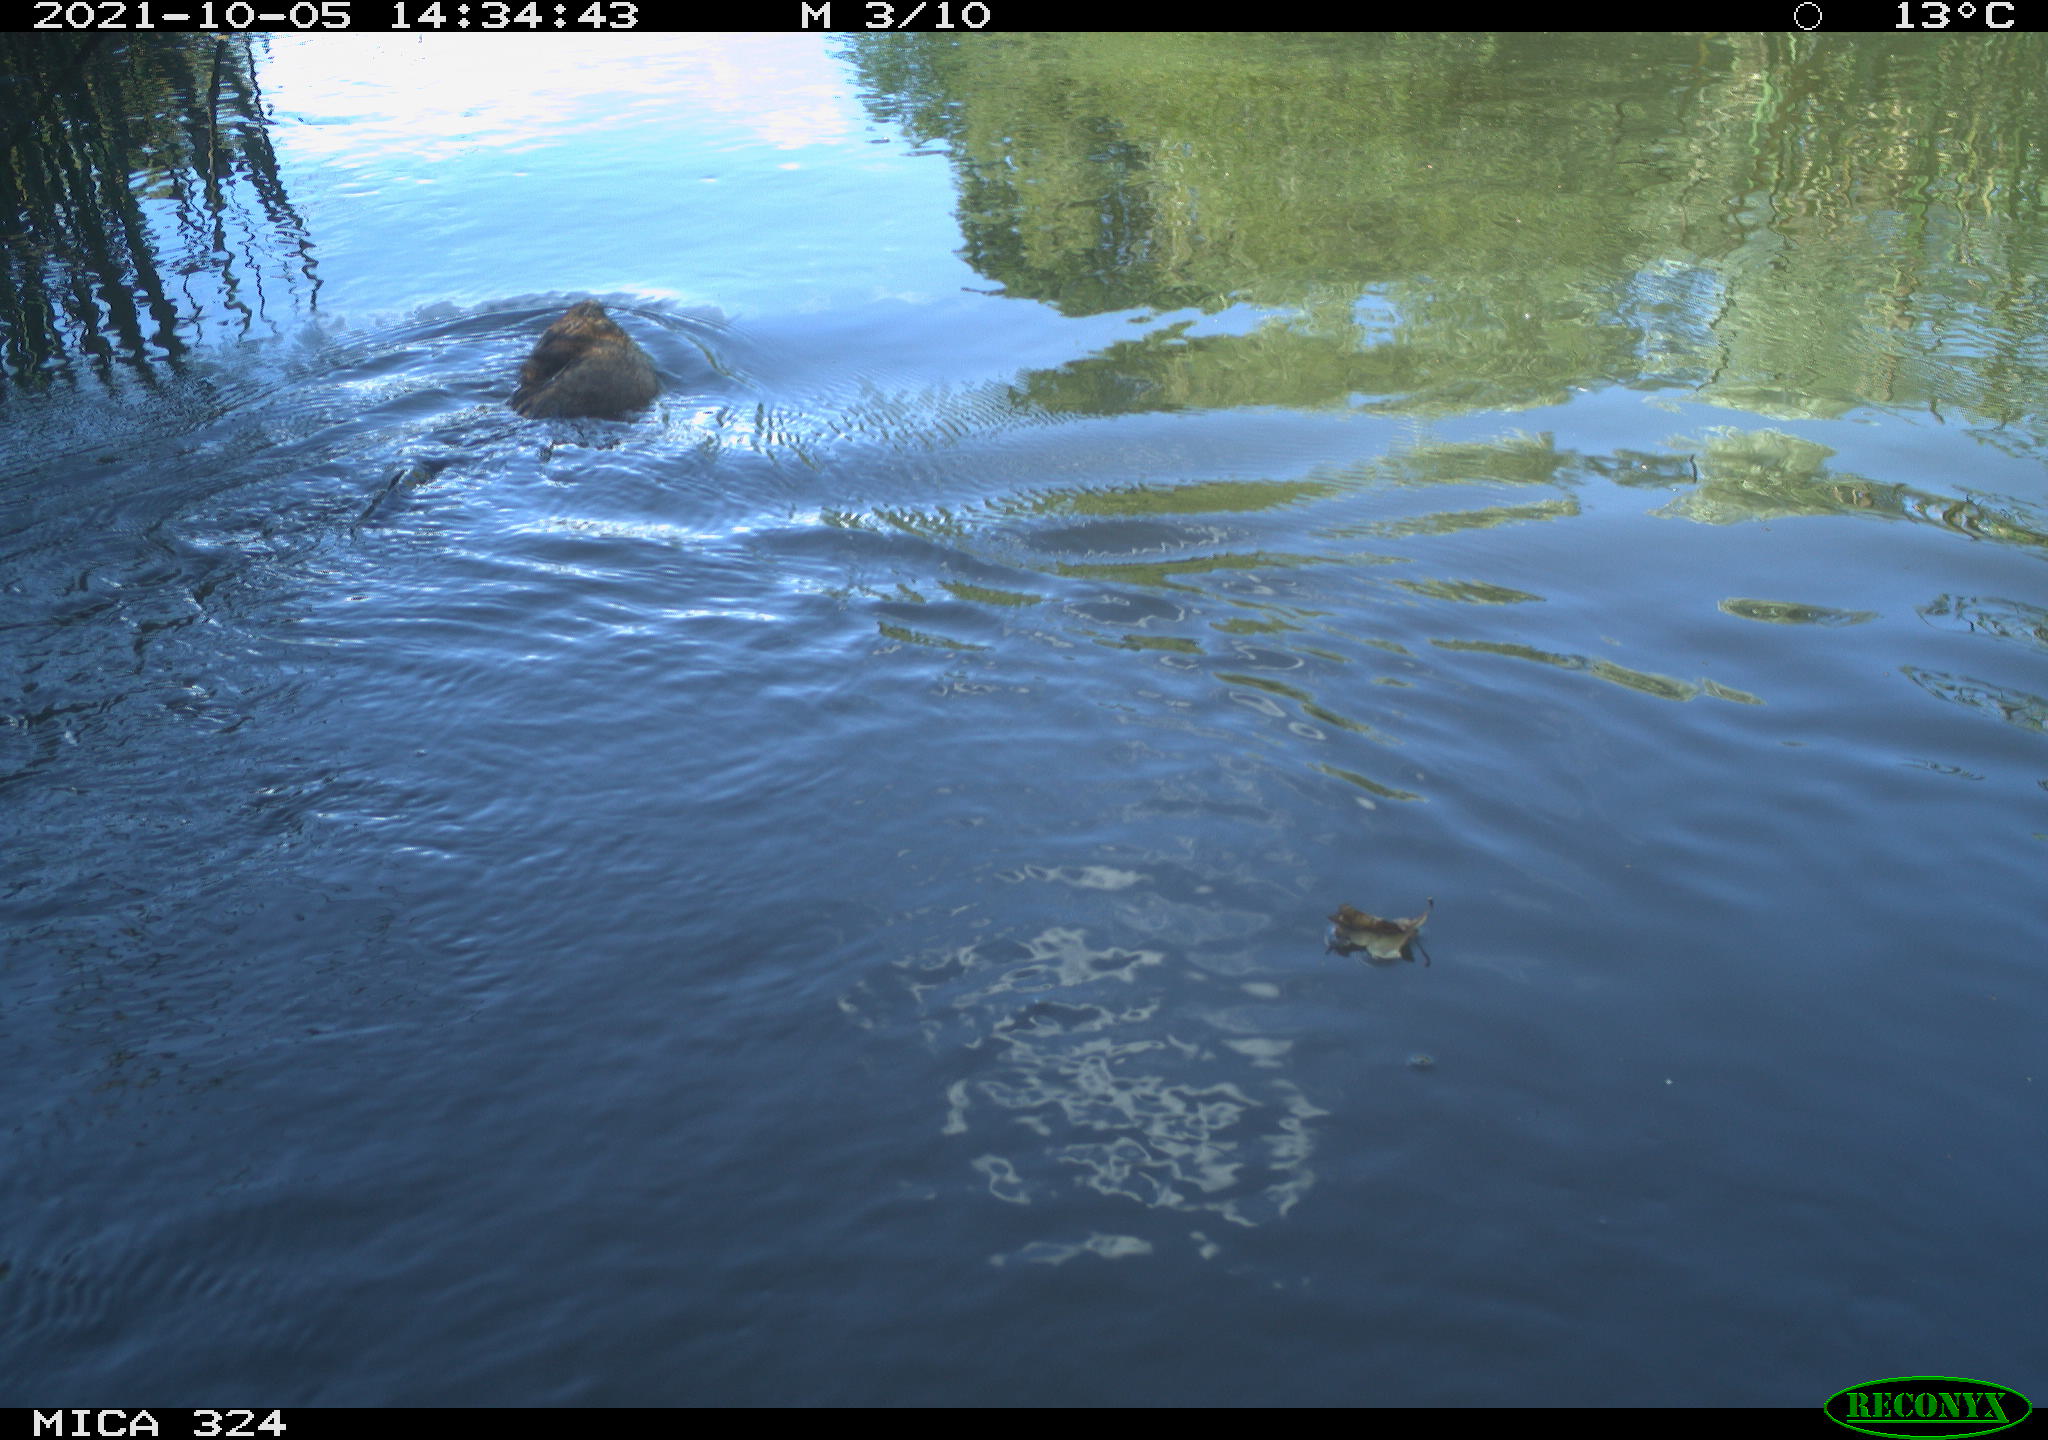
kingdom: Animalia
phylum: Chordata
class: Mammalia
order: Rodentia
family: Cricetidae
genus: Ondatra
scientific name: Ondatra zibethicus
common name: Muskrat
